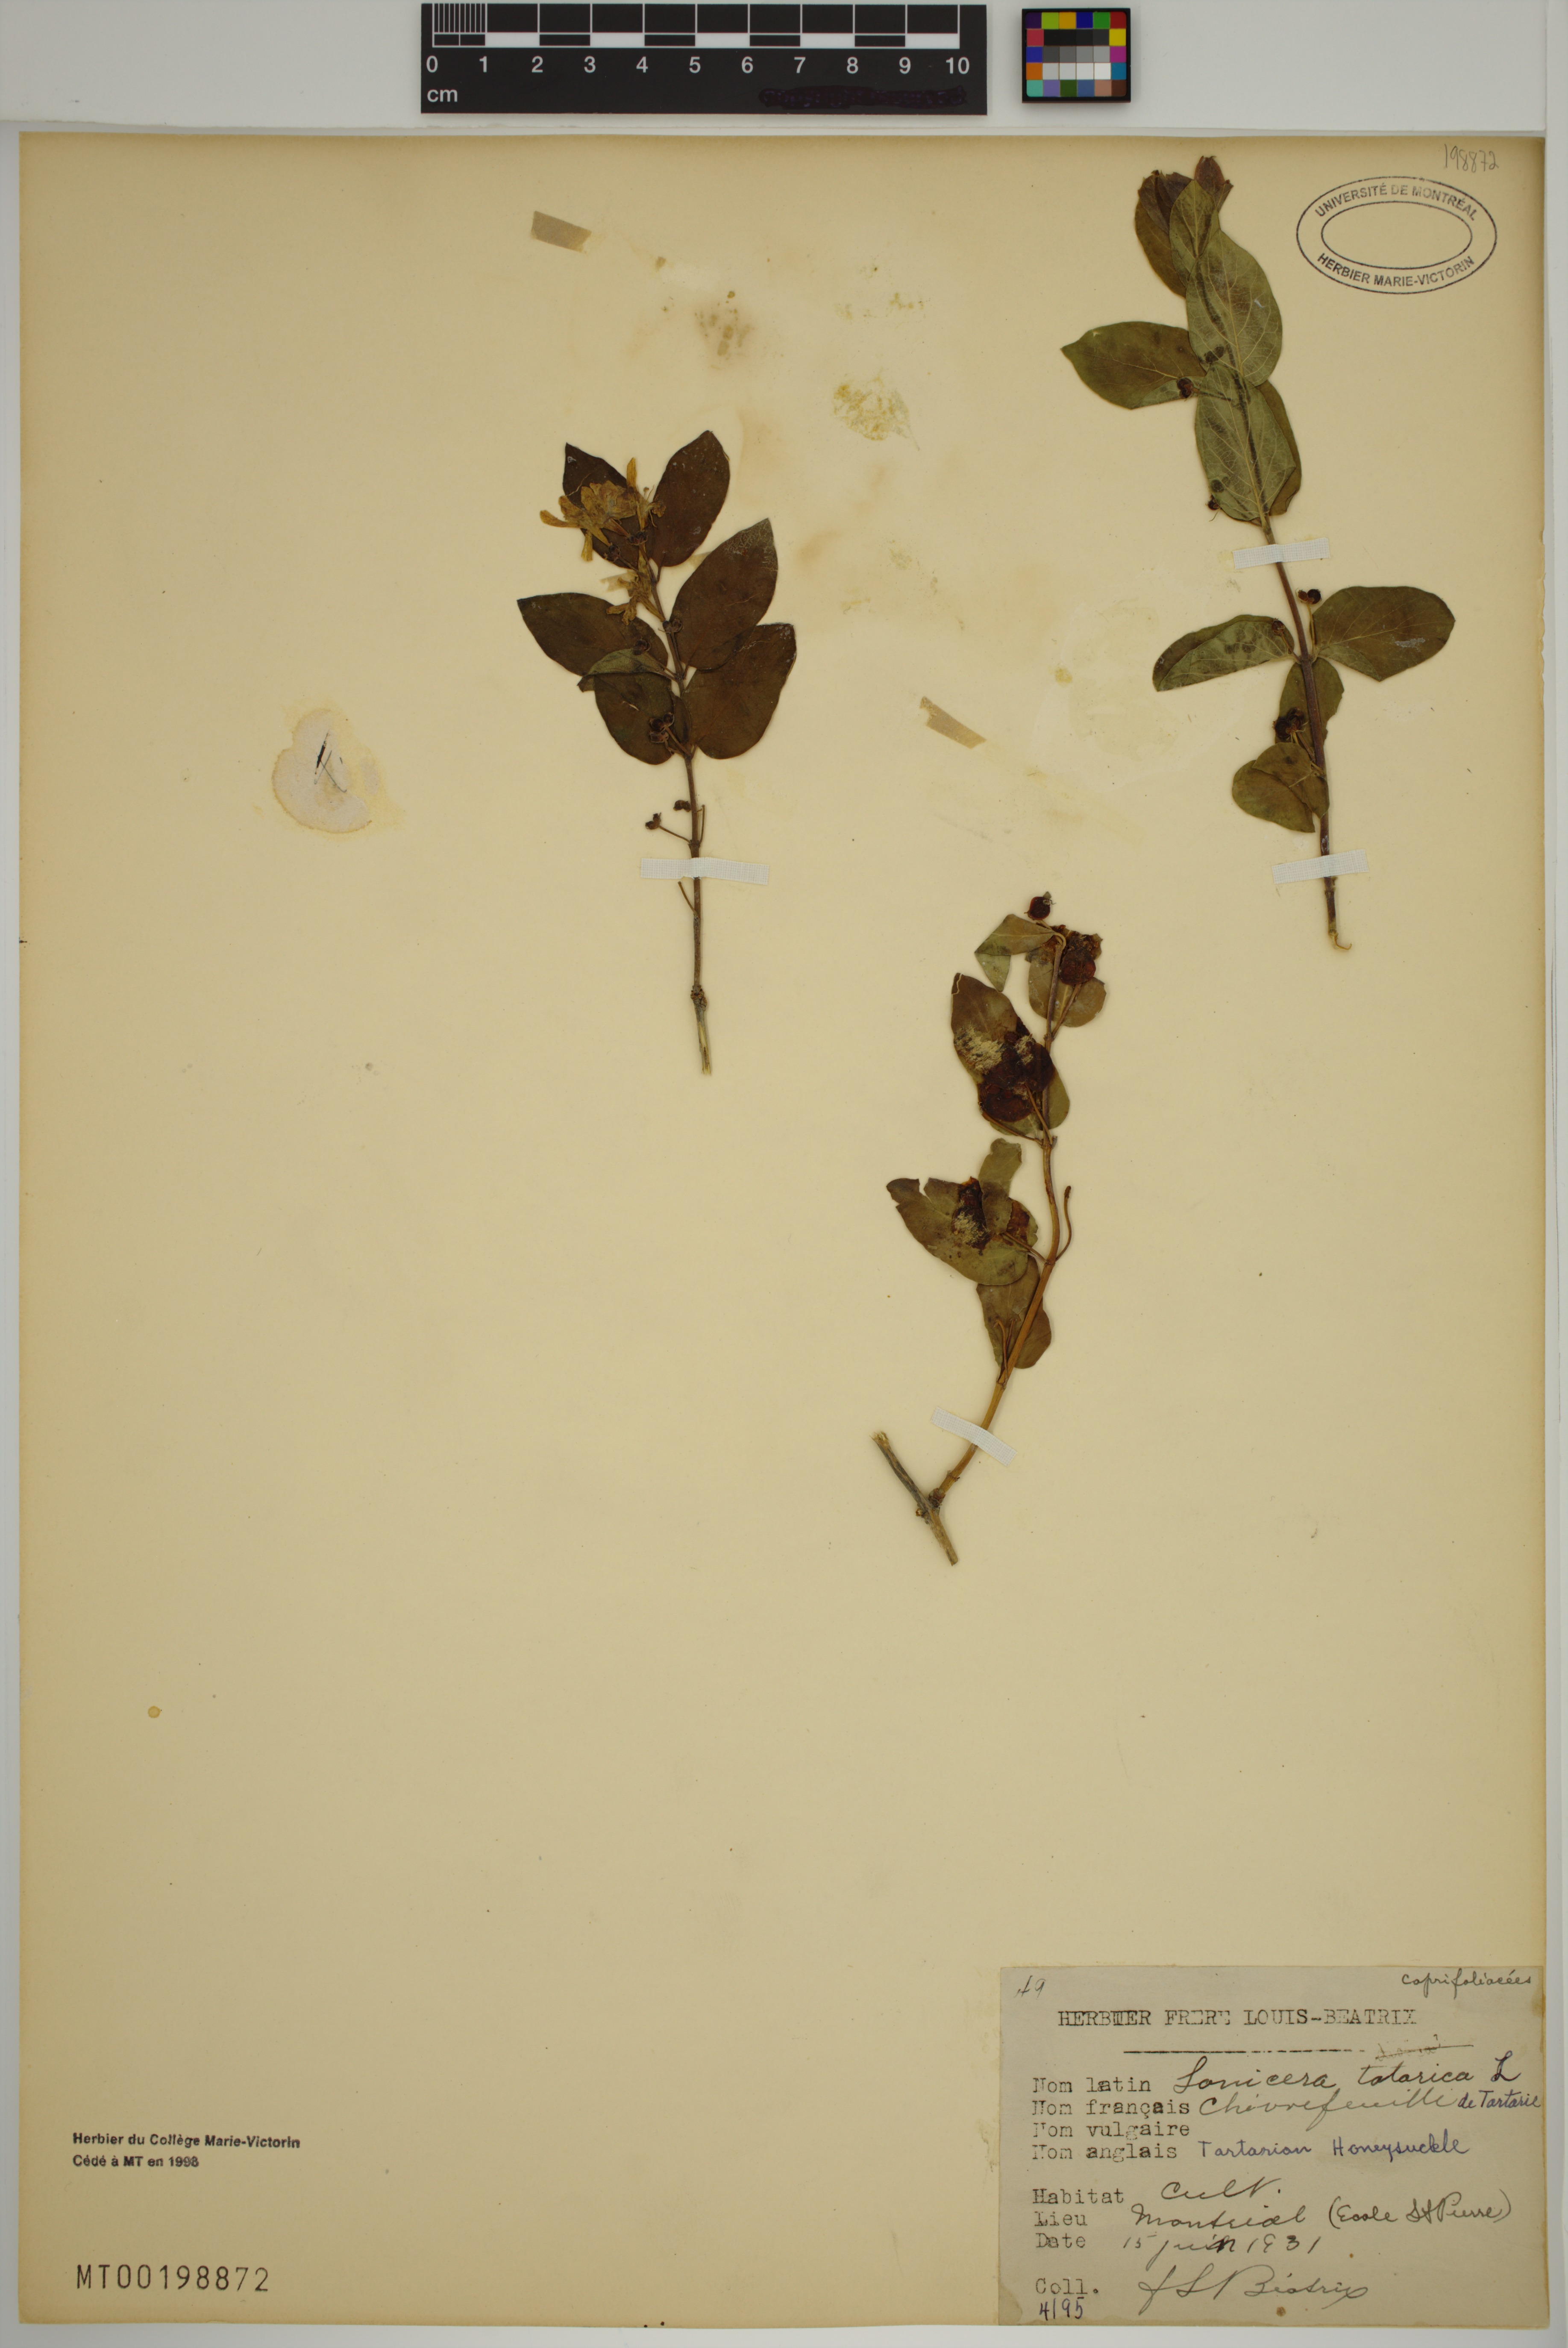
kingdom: Plantae
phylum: Tracheophyta
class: Magnoliopsida
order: Dipsacales
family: Caprifoliaceae
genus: Lonicera
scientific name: Lonicera bella
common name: Bell's honeysuckle
